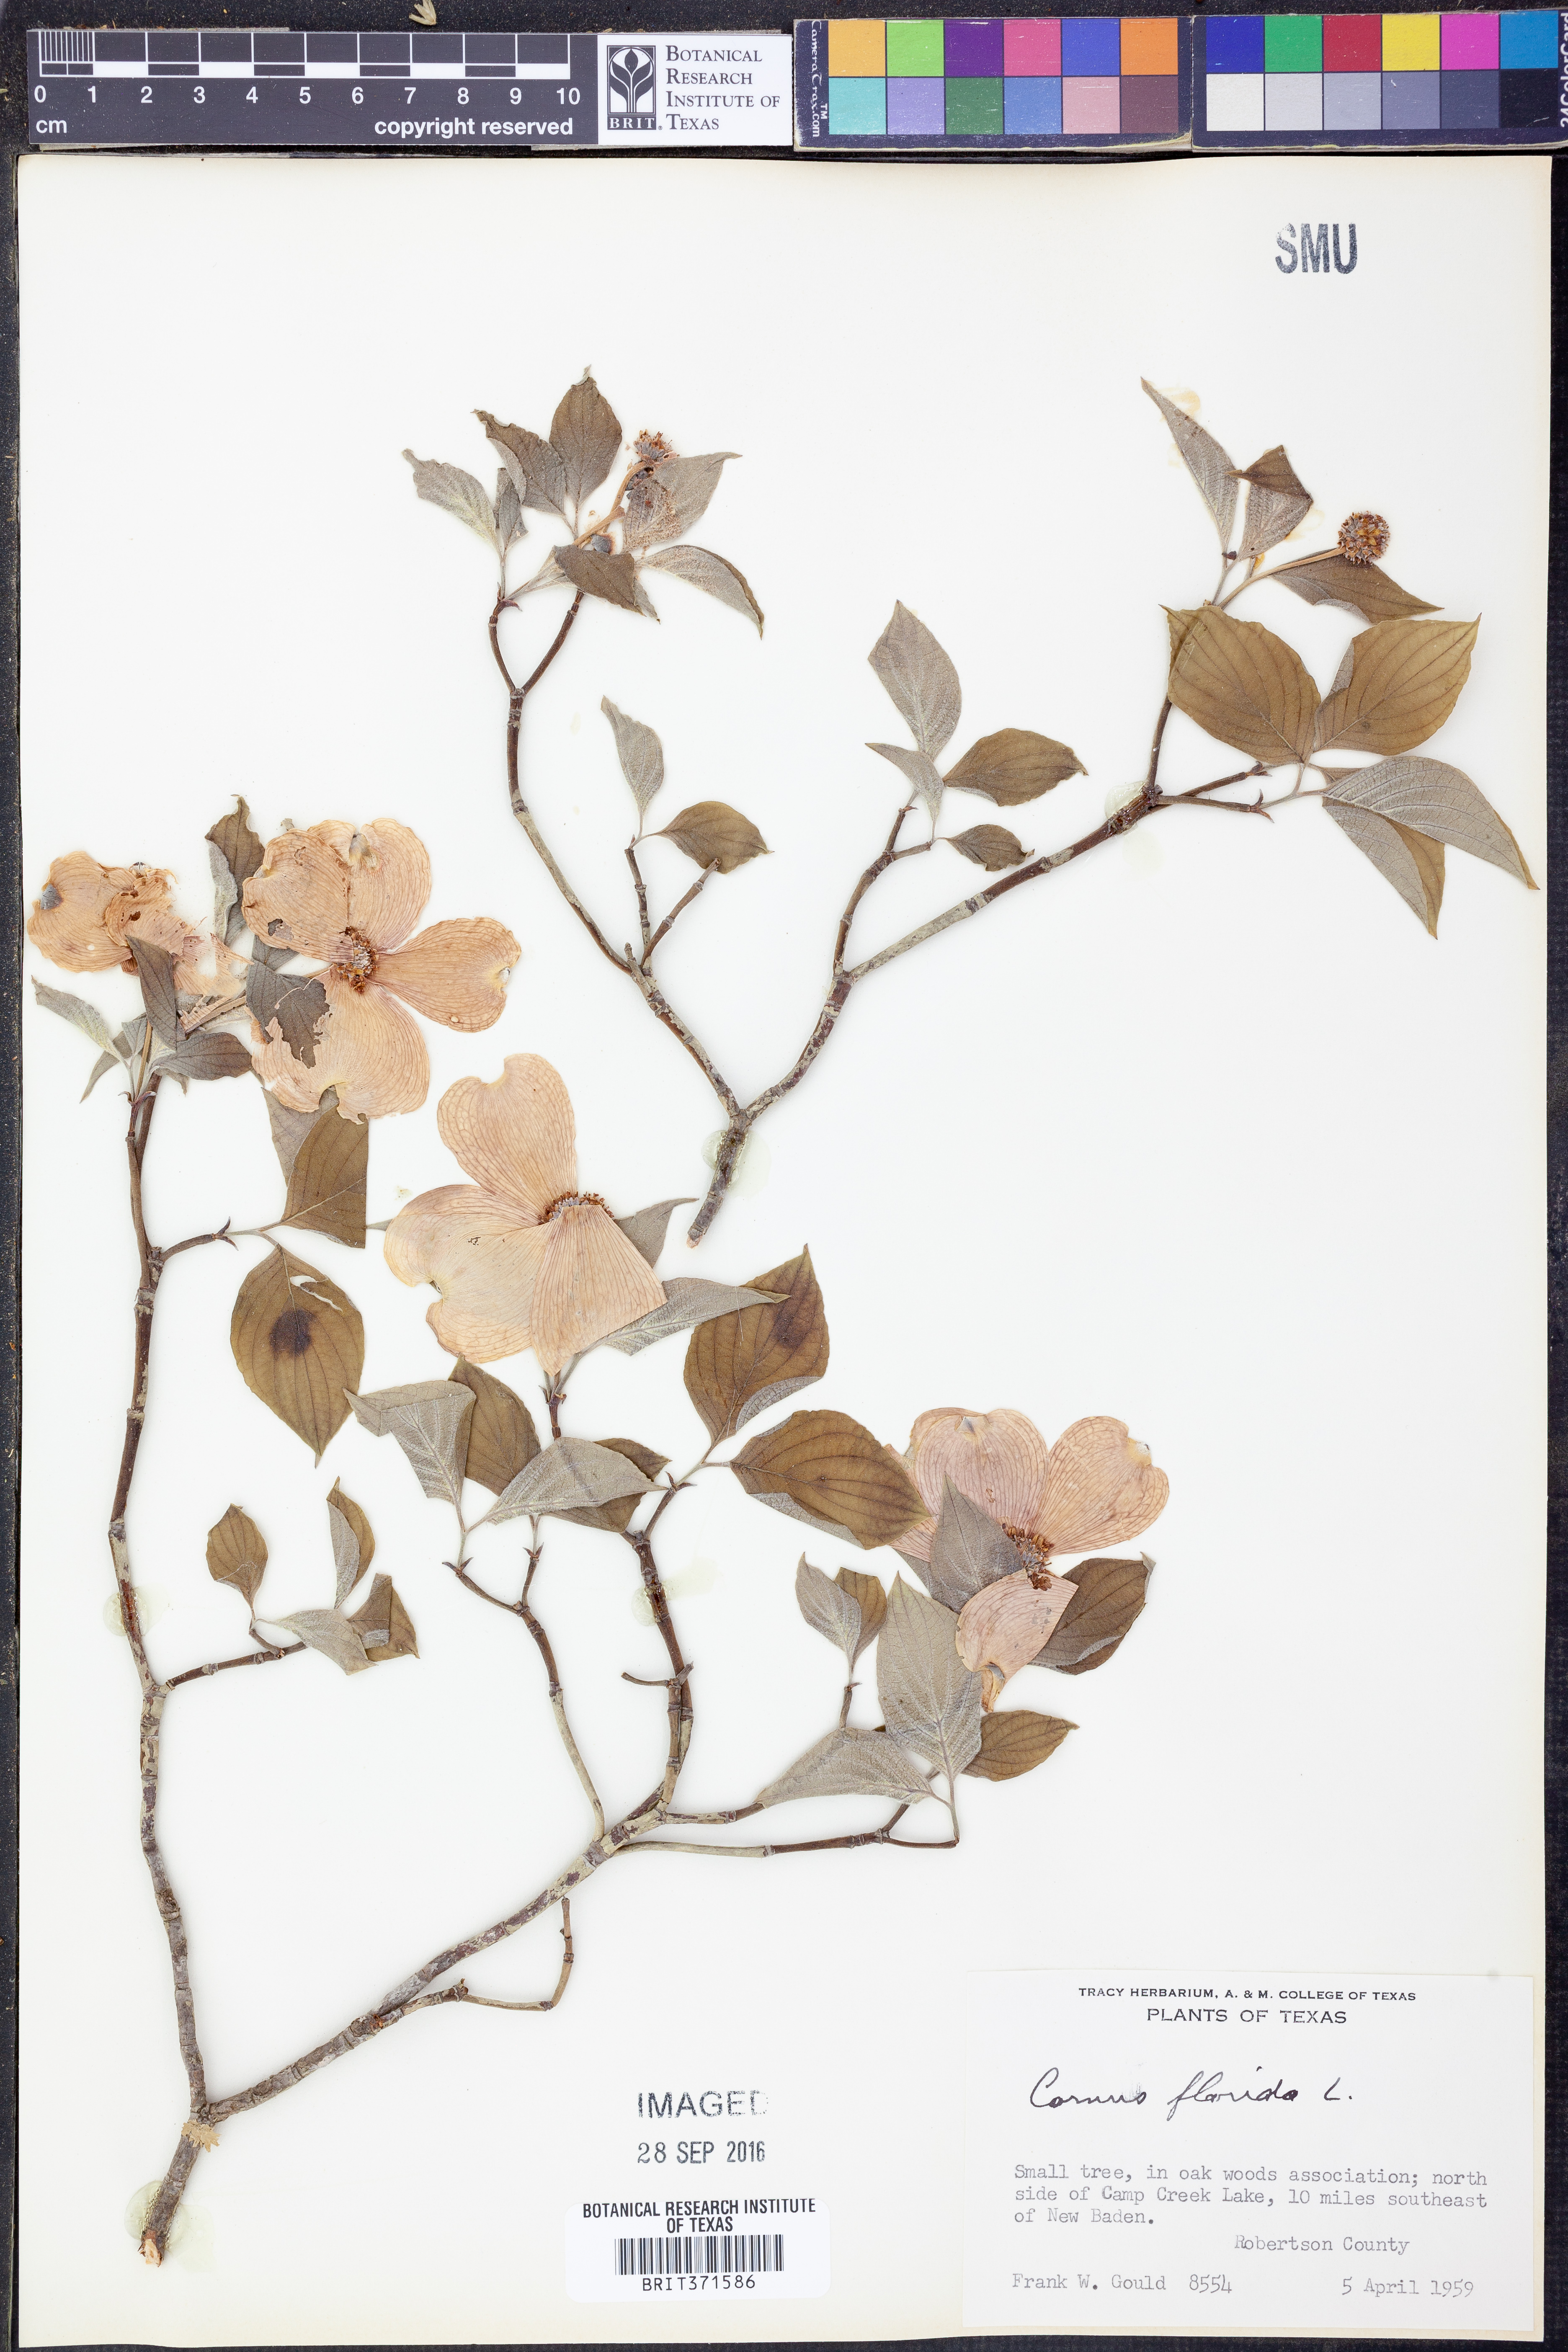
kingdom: Plantae
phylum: Tracheophyta
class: Magnoliopsida
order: Cornales
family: Cornaceae
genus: Cornus
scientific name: Cornus florida
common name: Flowering dogwood
